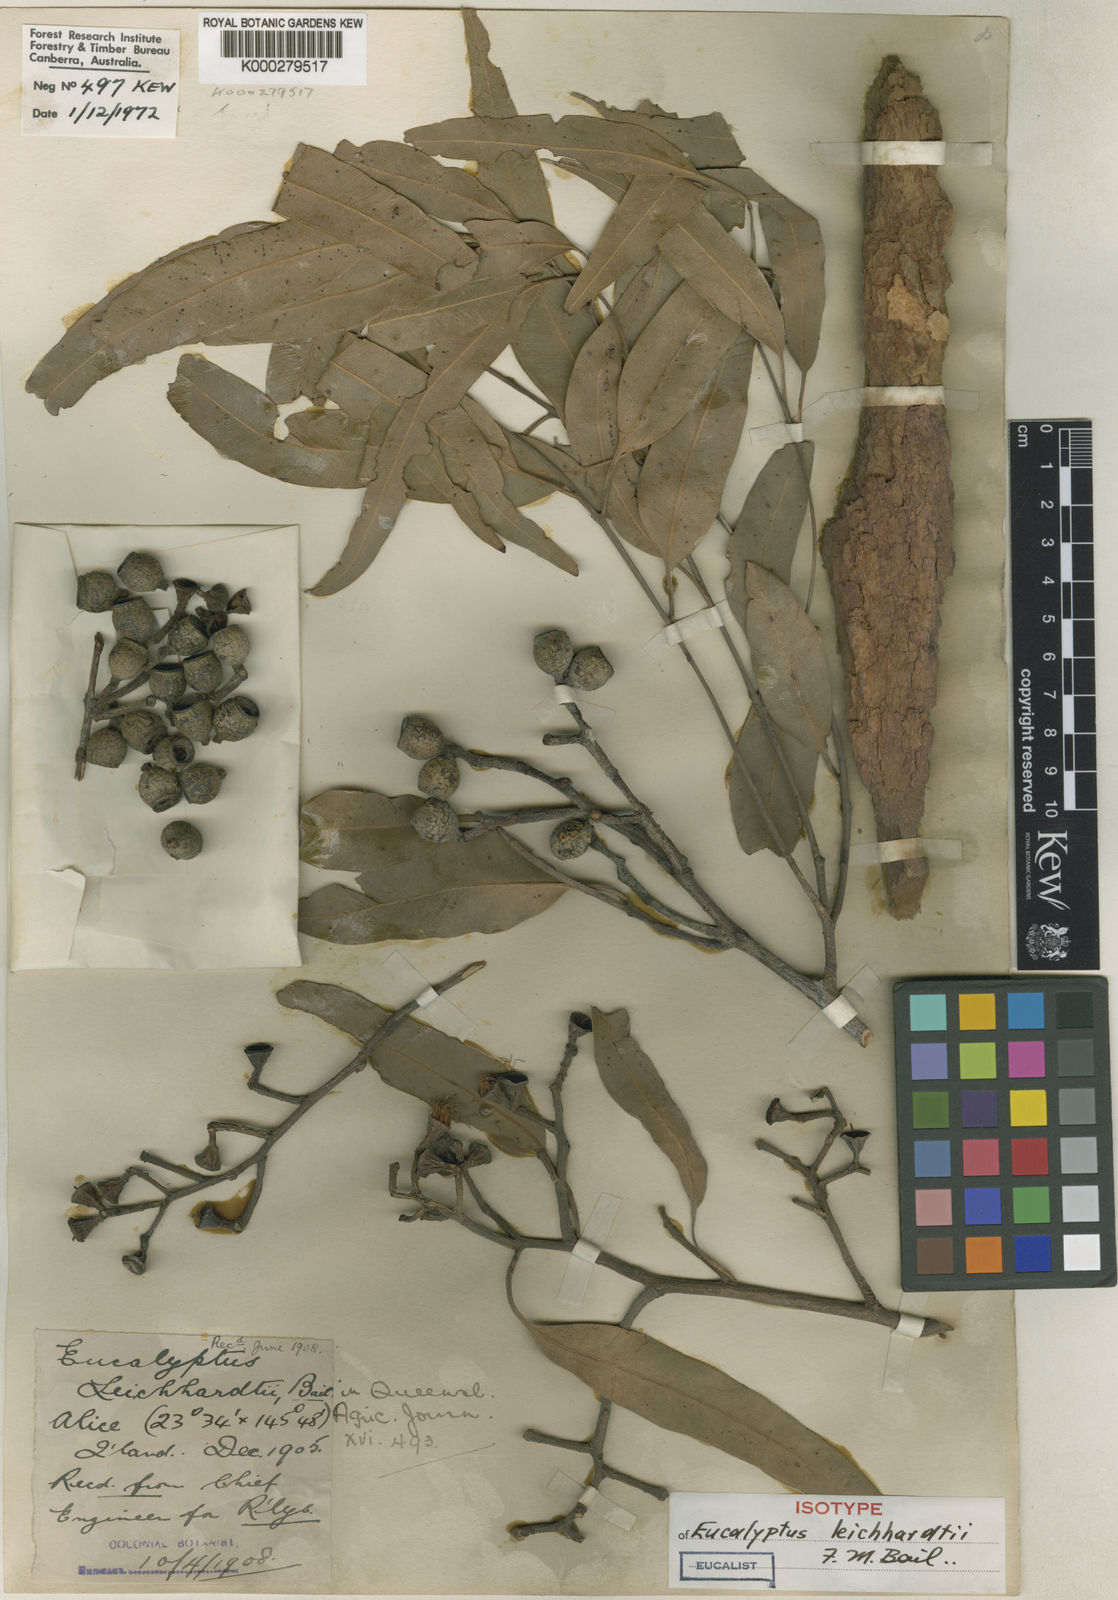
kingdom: Plantae
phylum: Tracheophyta
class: Magnoliopsida
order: Myrtales
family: Myrtaceae
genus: Corymbia
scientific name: Corymbia leichhardtii
